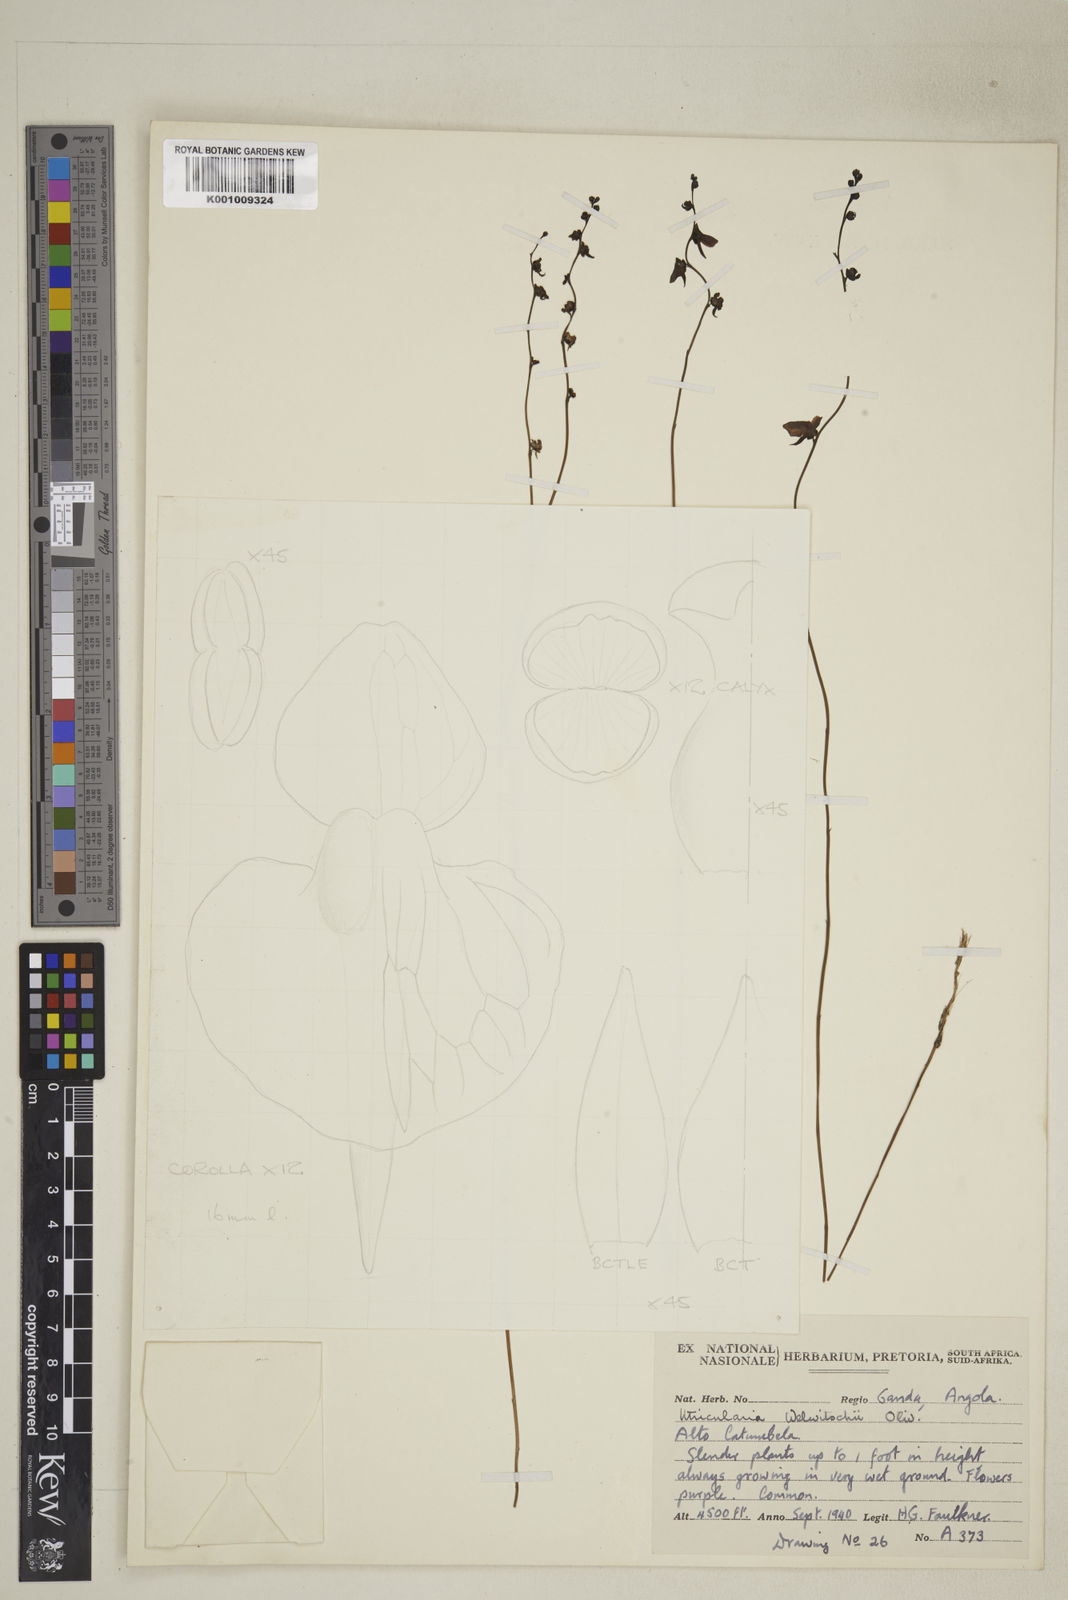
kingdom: Plantae
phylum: Tracheophyta
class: Magnoliopsida
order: Lamiales
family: Lentibulariaceae
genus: Utricularia
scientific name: Utricularia welwitschii
